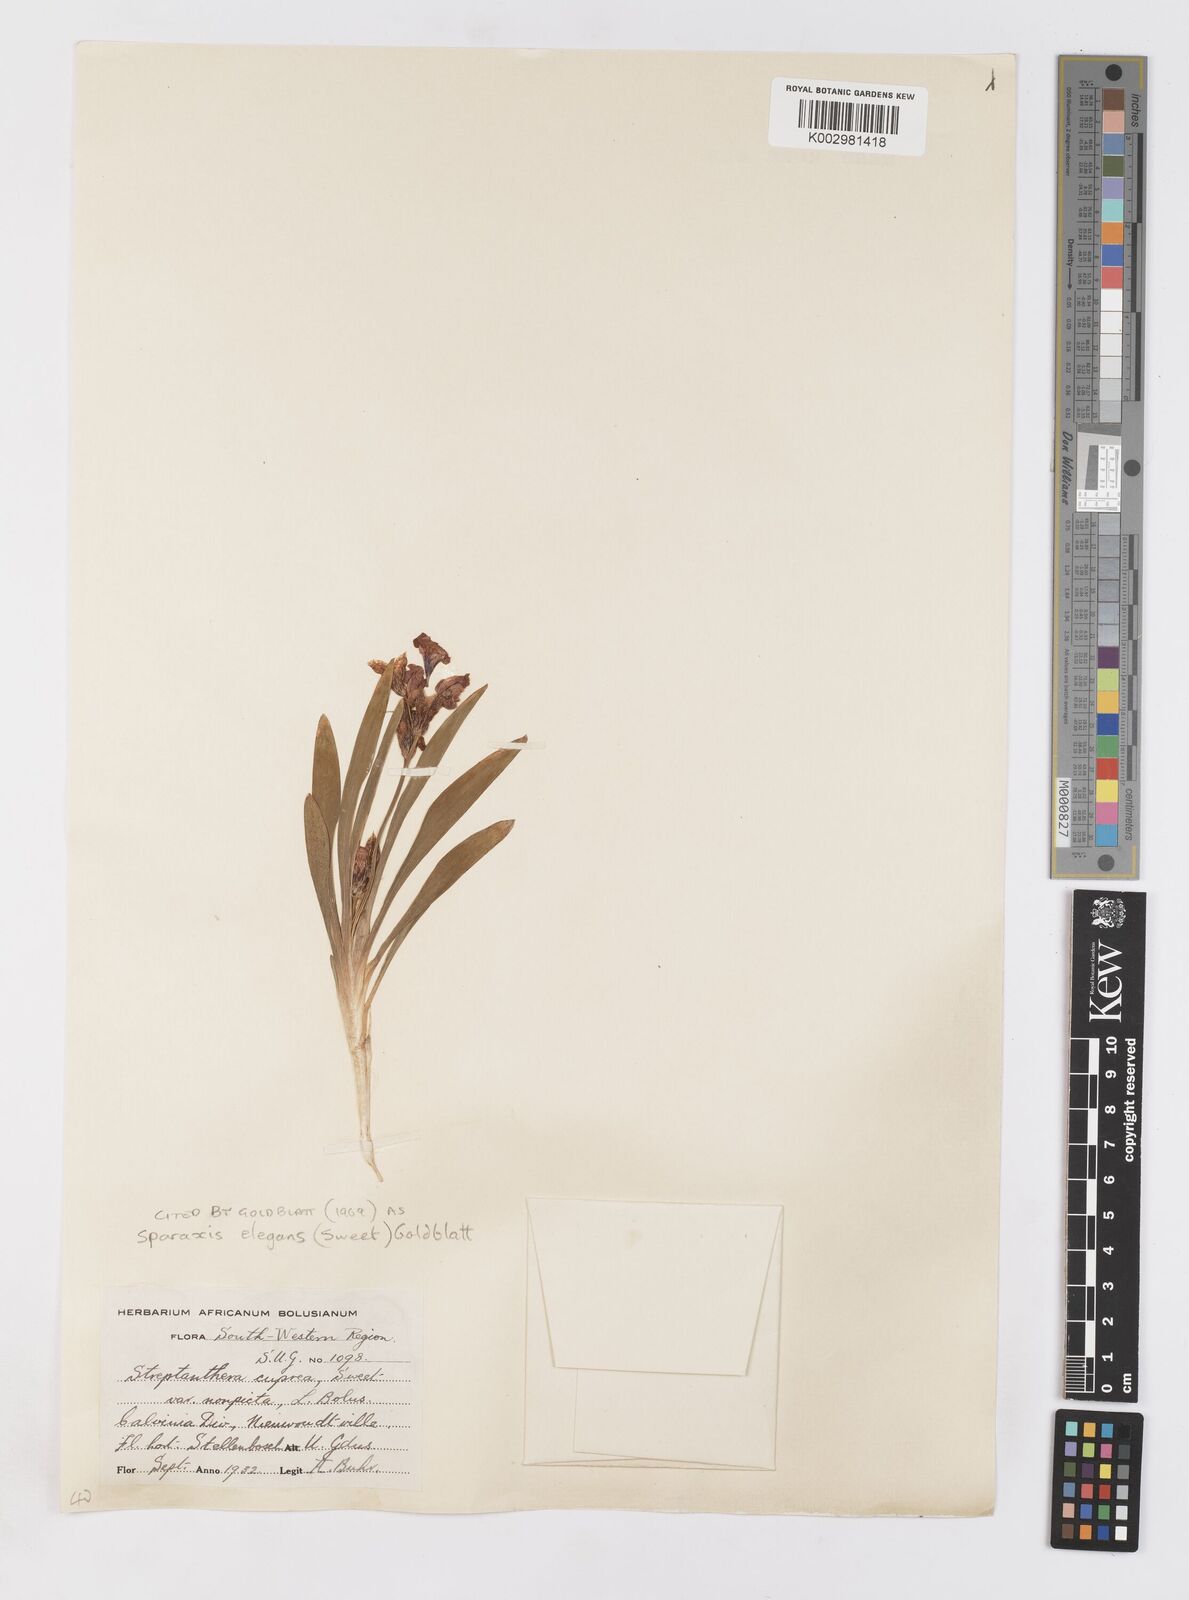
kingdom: Plantae
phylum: Tracheophyta
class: Liliopsida
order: Asparagales
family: Iridaceae
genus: Sparaxis
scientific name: Sparaxis elegans
